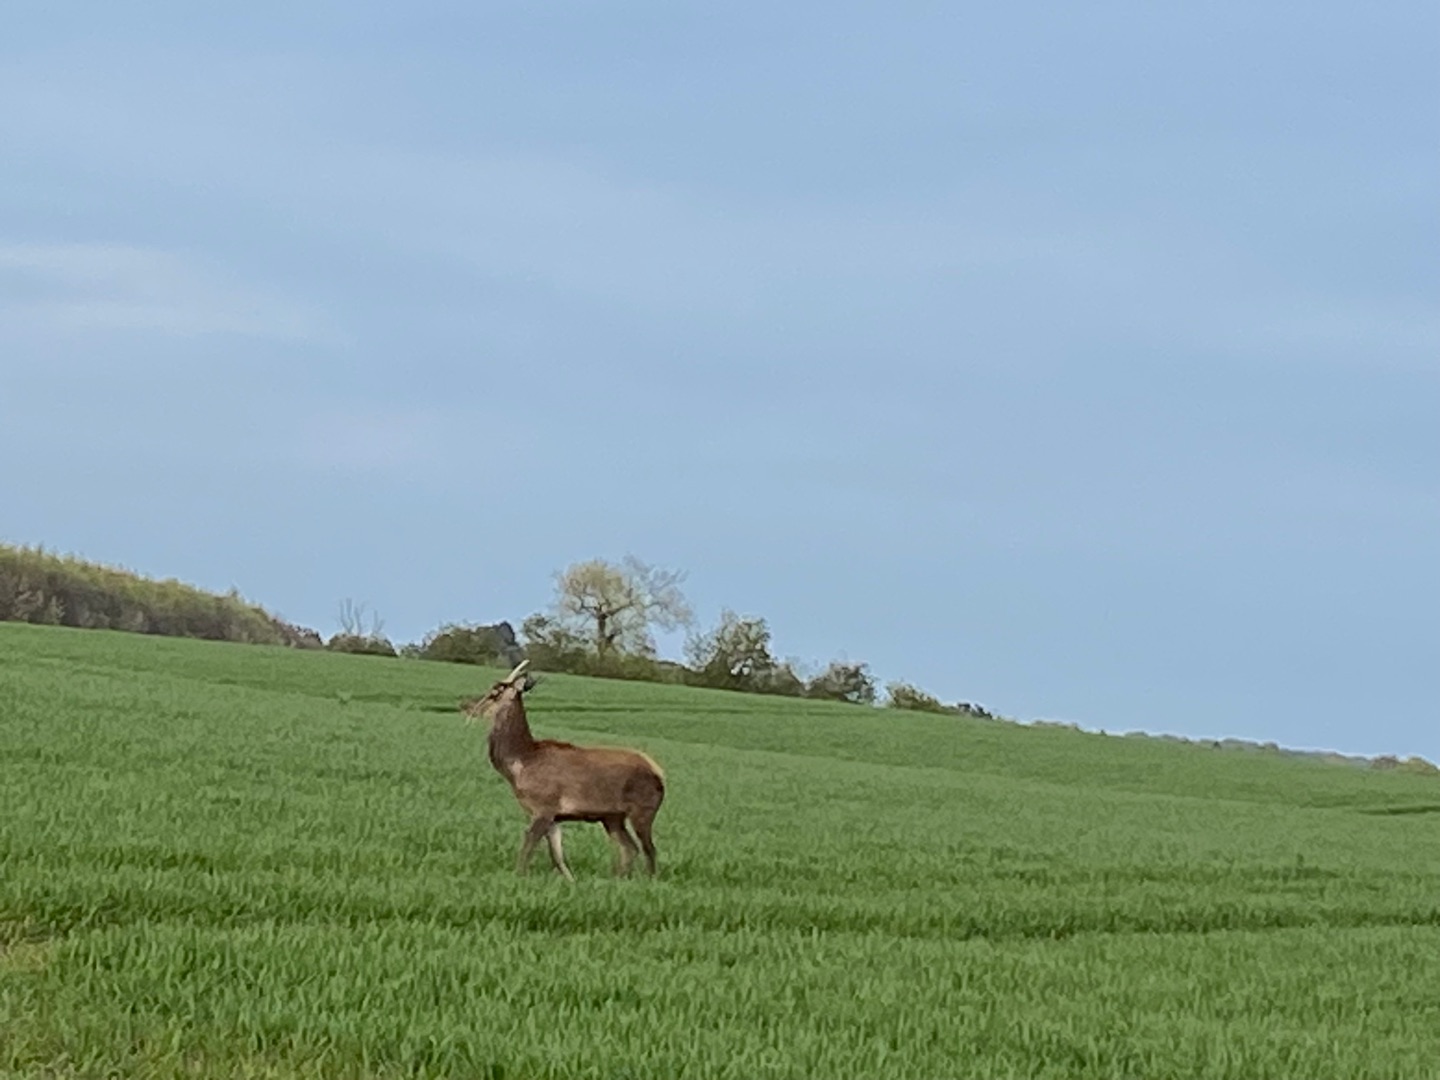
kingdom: Animalia
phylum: Chordata
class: Mammalia
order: Artiodactyla
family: Cervidae
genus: Cervus
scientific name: Cervus elaphus
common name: Krondyr
